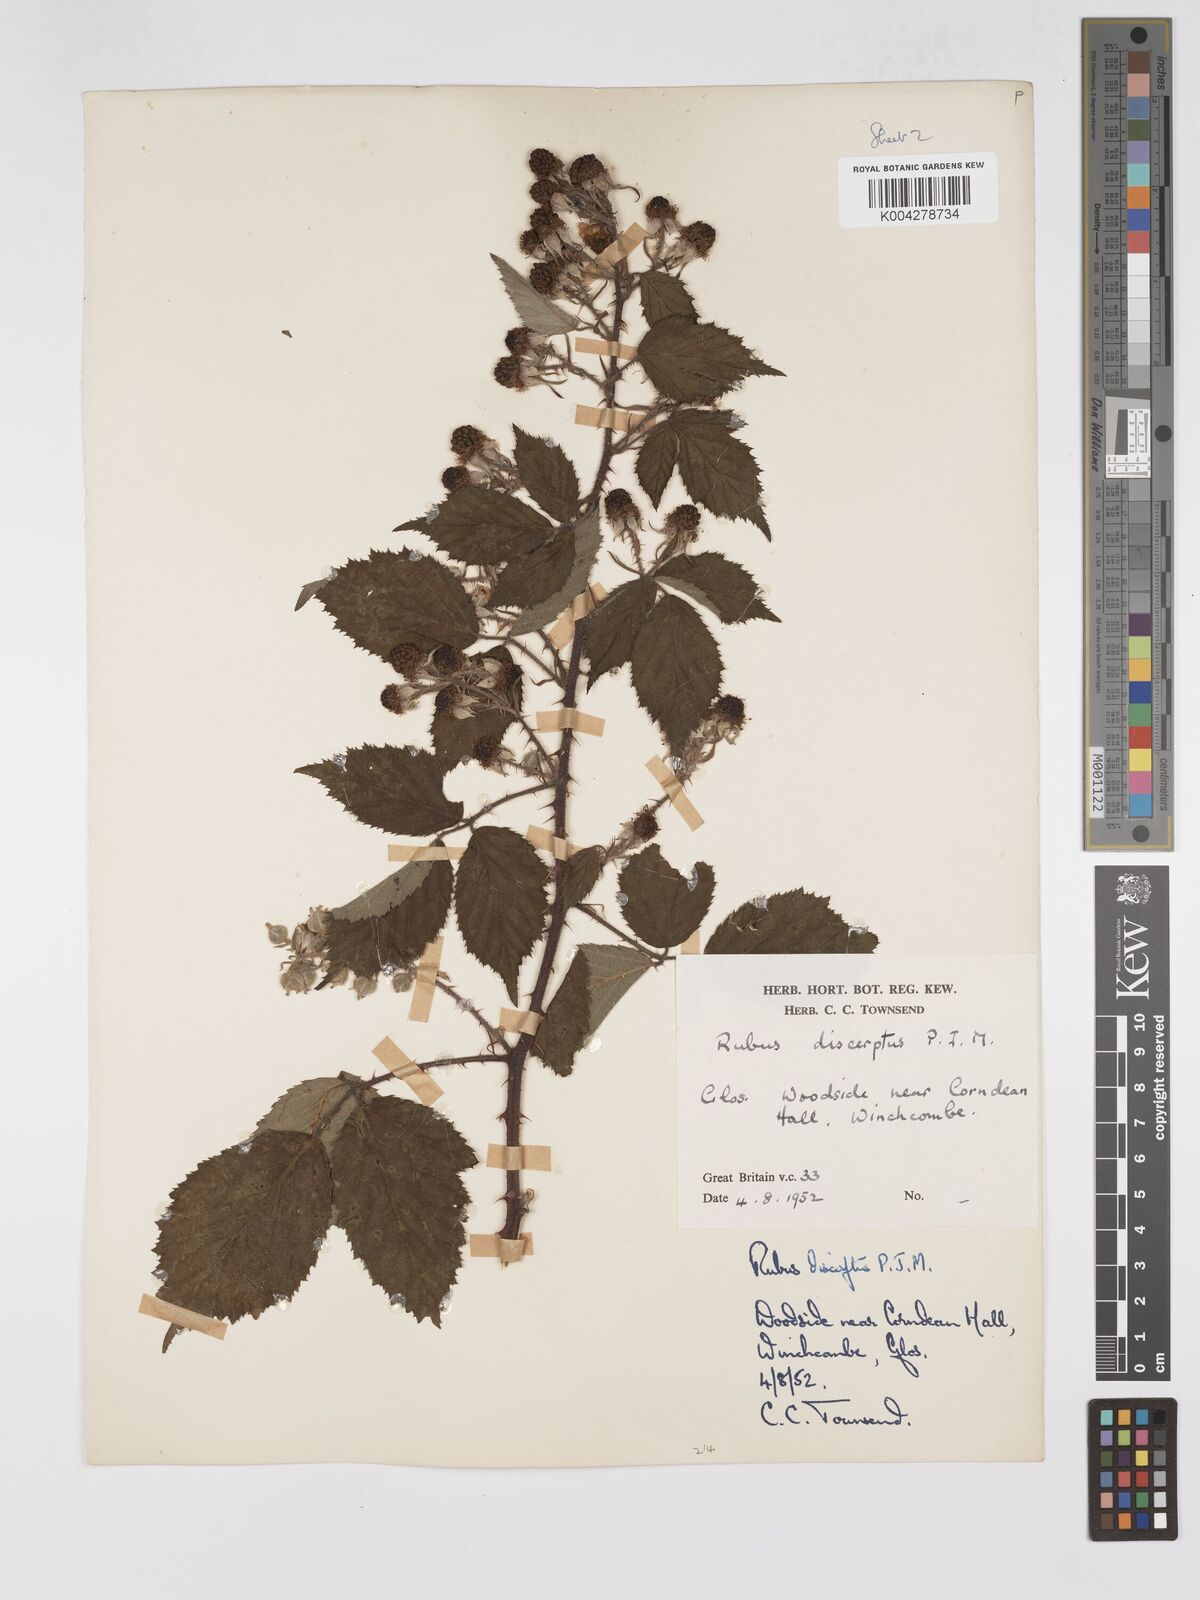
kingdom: Plantae
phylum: Tracheophyta
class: Magnoliopsida
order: Rosales
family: Rosaceae
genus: Rubus
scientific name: Rubus echinatus
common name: Echinate bramble
